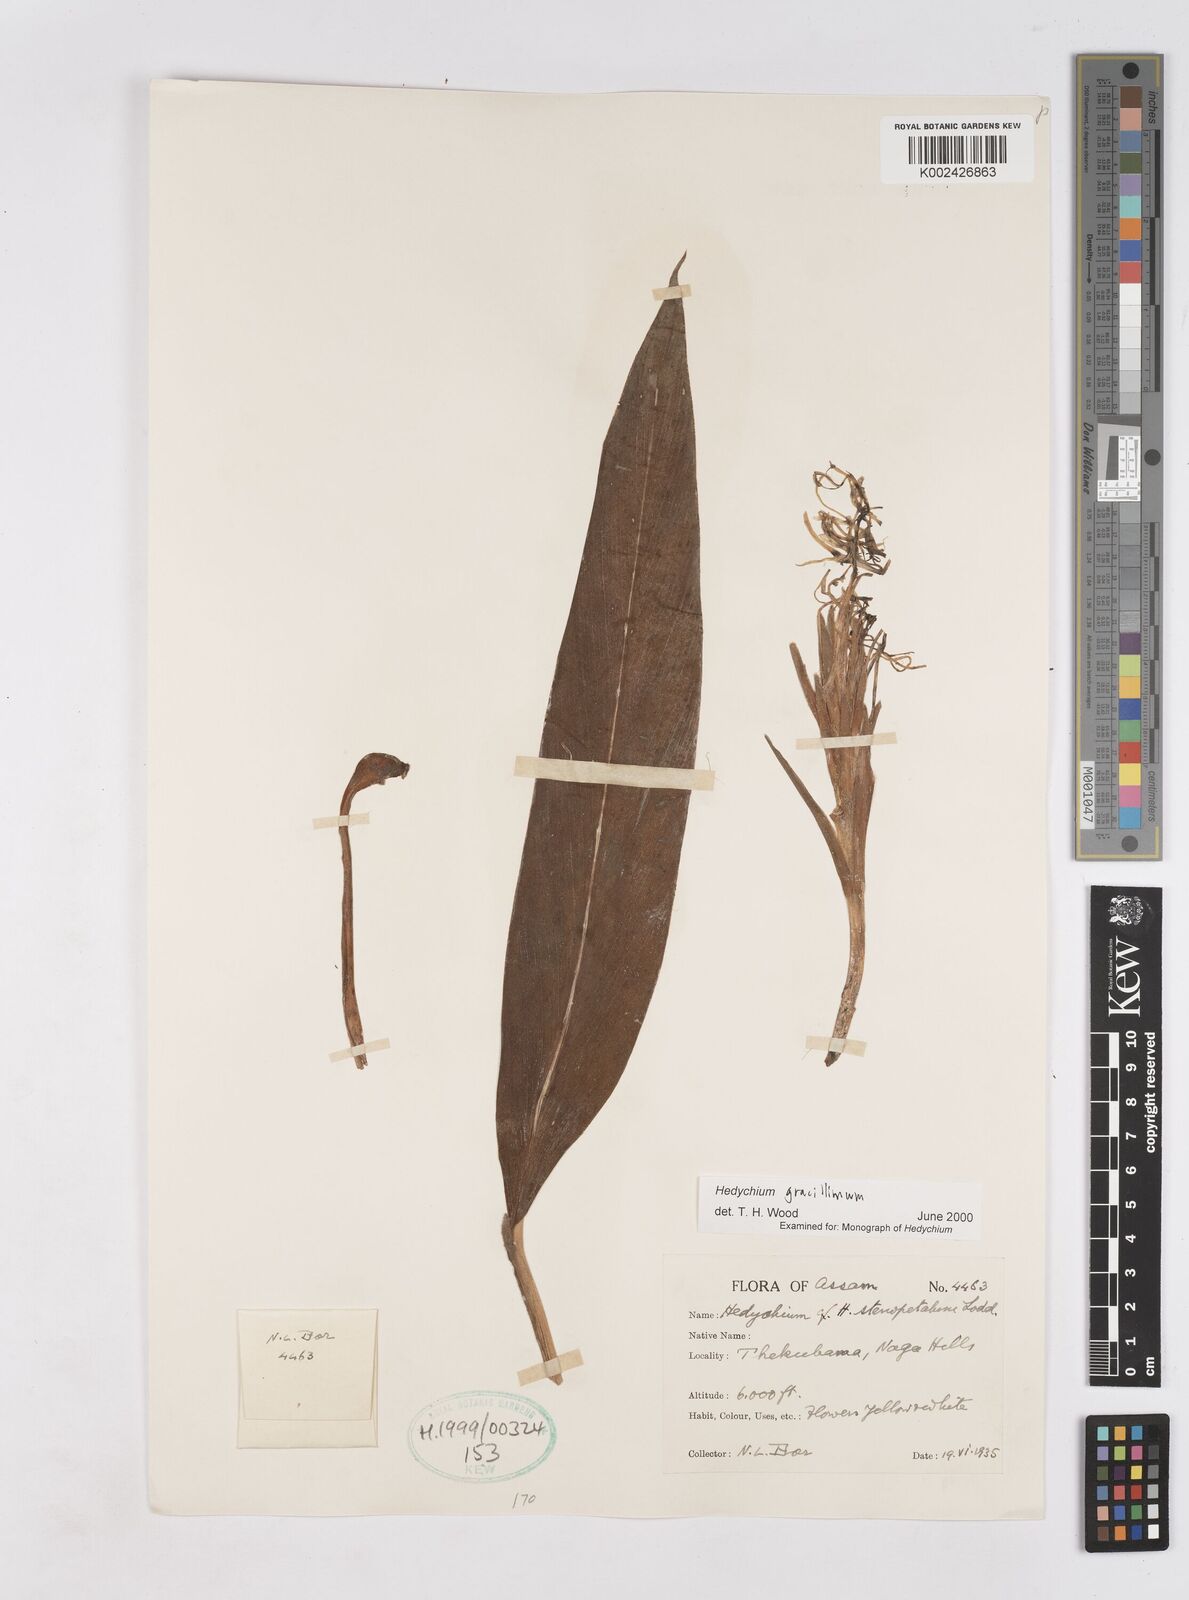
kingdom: Plantae
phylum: Tracheophyta
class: Liliopsida
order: Zingiberales
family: Zingiberaceae
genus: Hedychium
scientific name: Hedychium gracillimum
